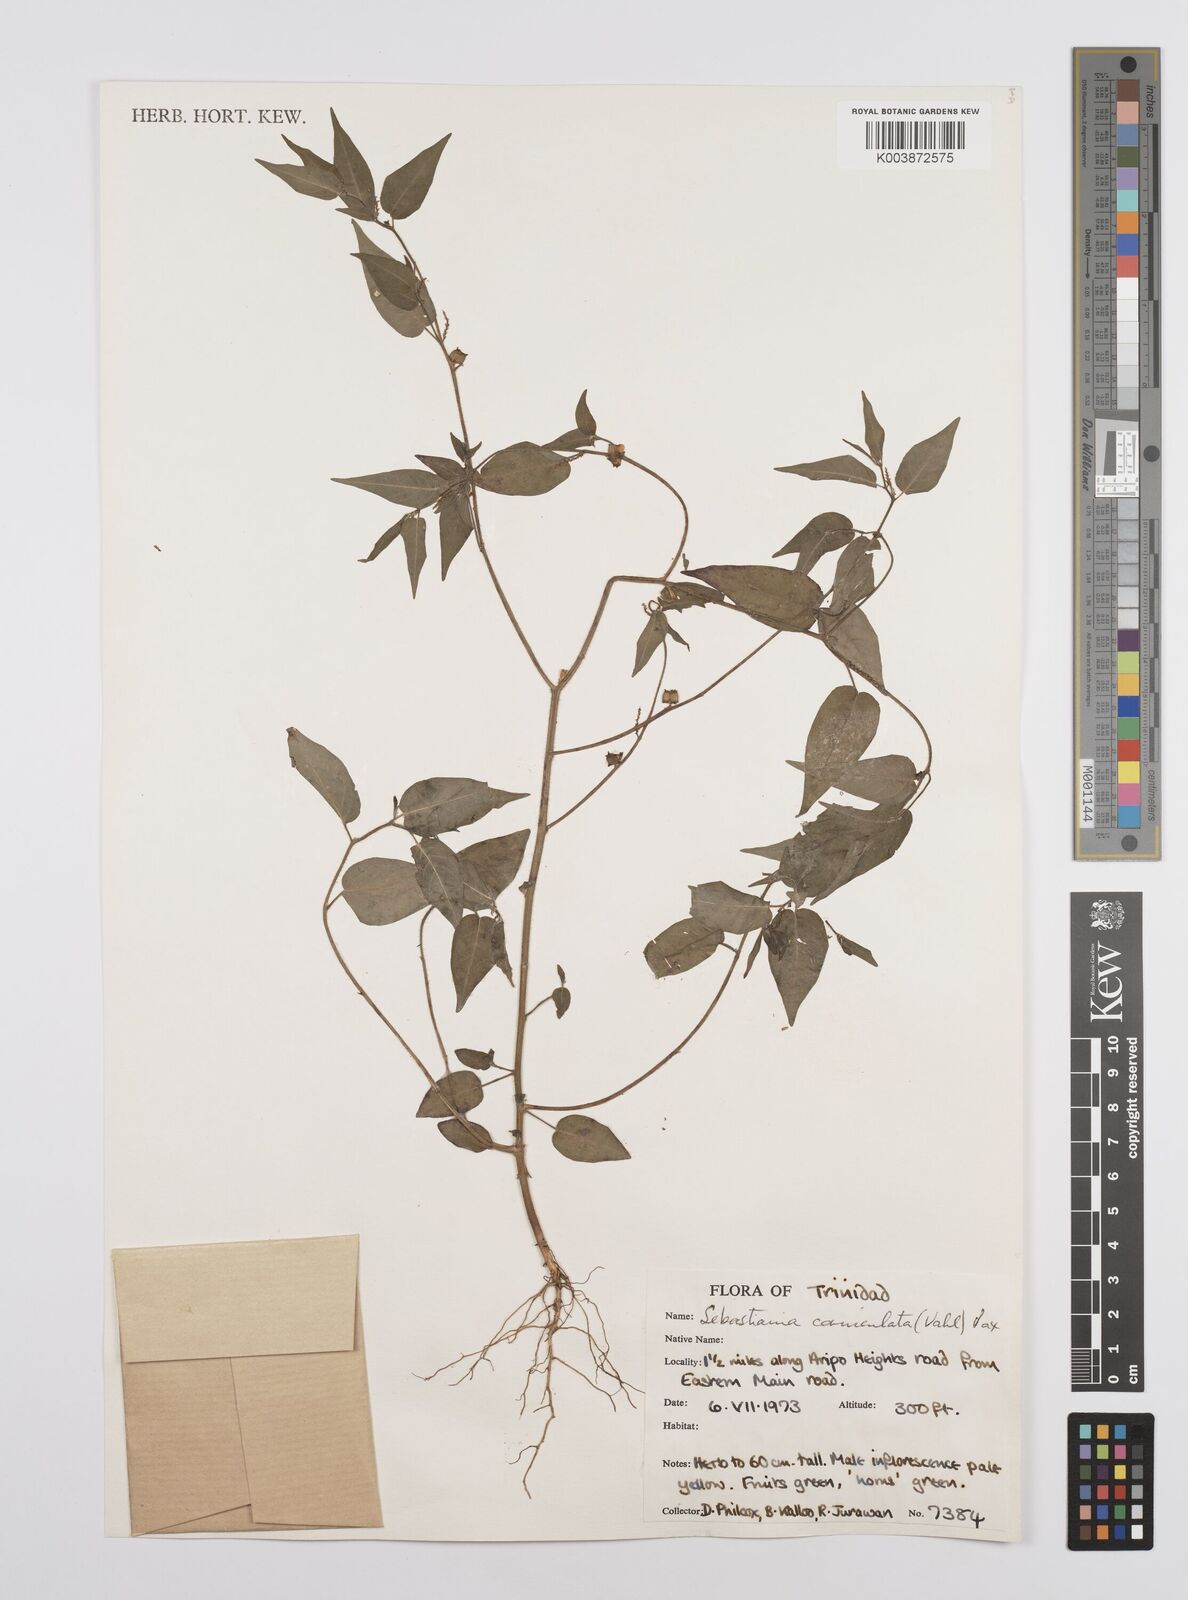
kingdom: Plantae
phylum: Tracheophyta
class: Magnoliopsida
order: Malpighiales
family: Euphorbiaceae
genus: Microstachys
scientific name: Microstachys corniculata
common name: Hato tejas
